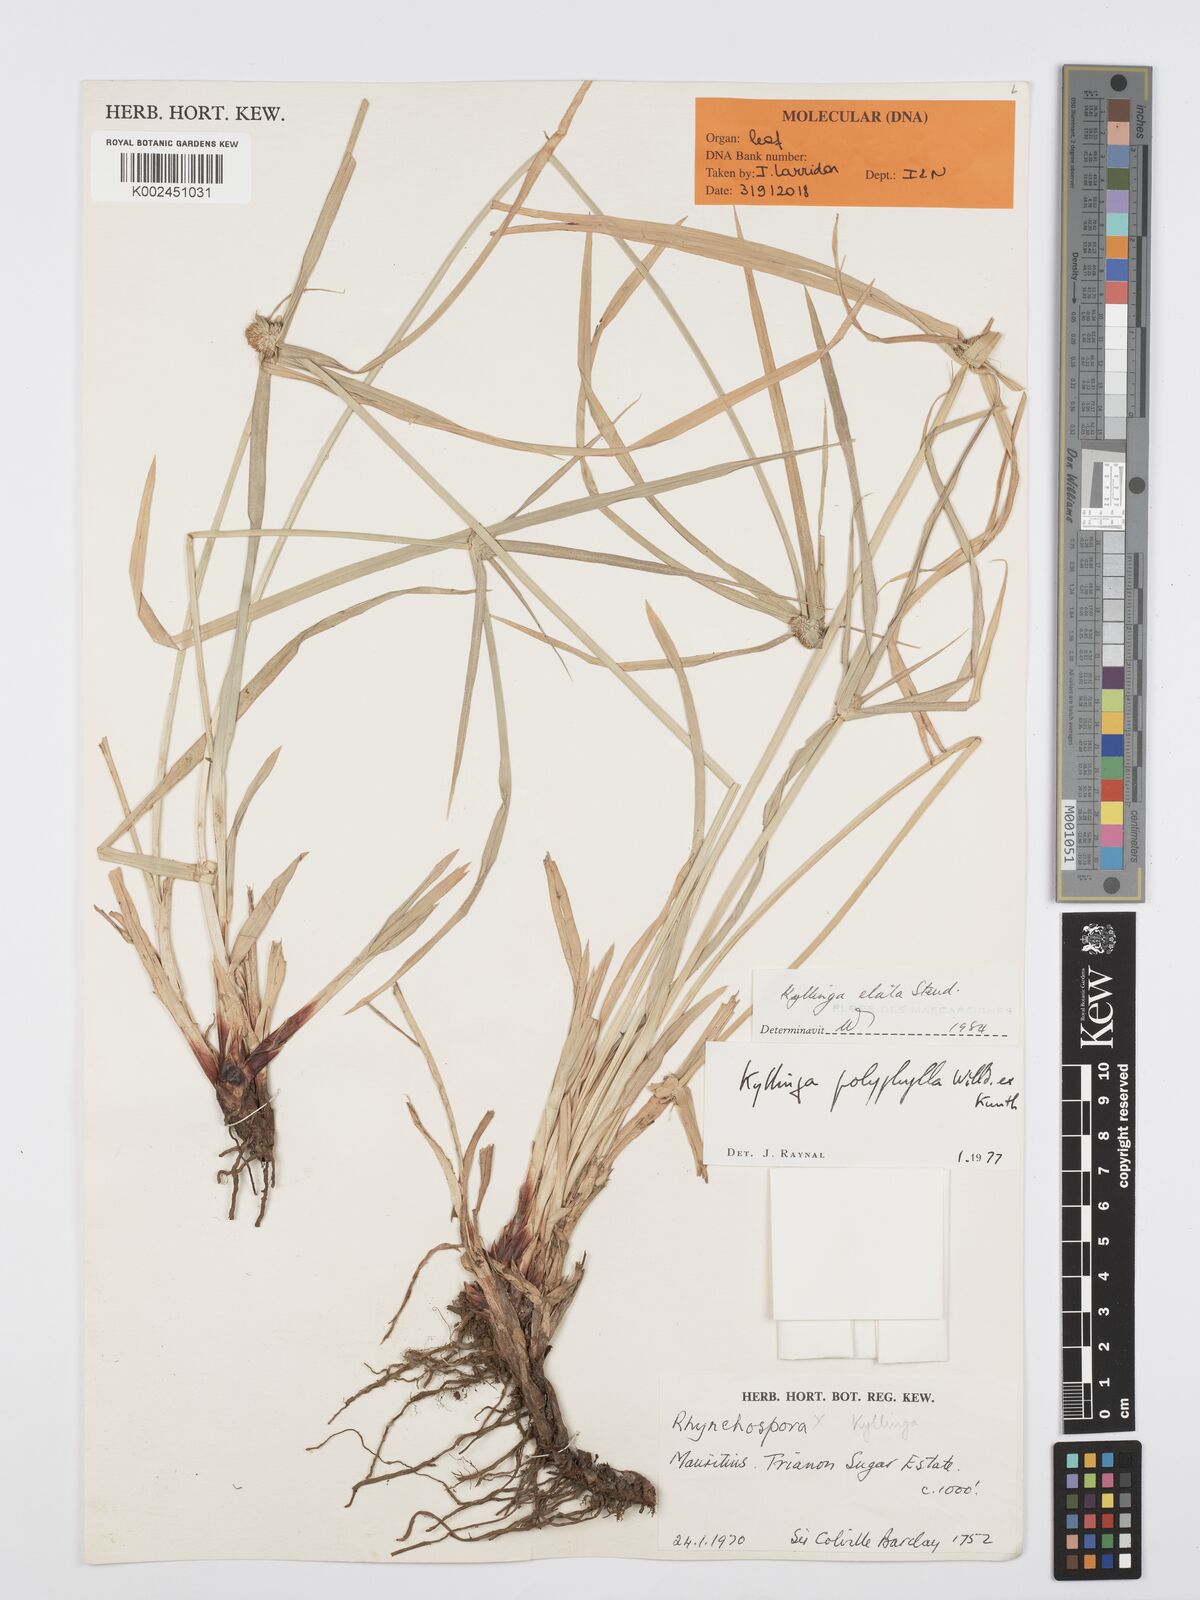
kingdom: Plantae
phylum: Tracheophyta
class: Liliopsida
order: Poales
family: Cyperaceae
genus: Cyperus
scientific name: Cyperus bulbosus
